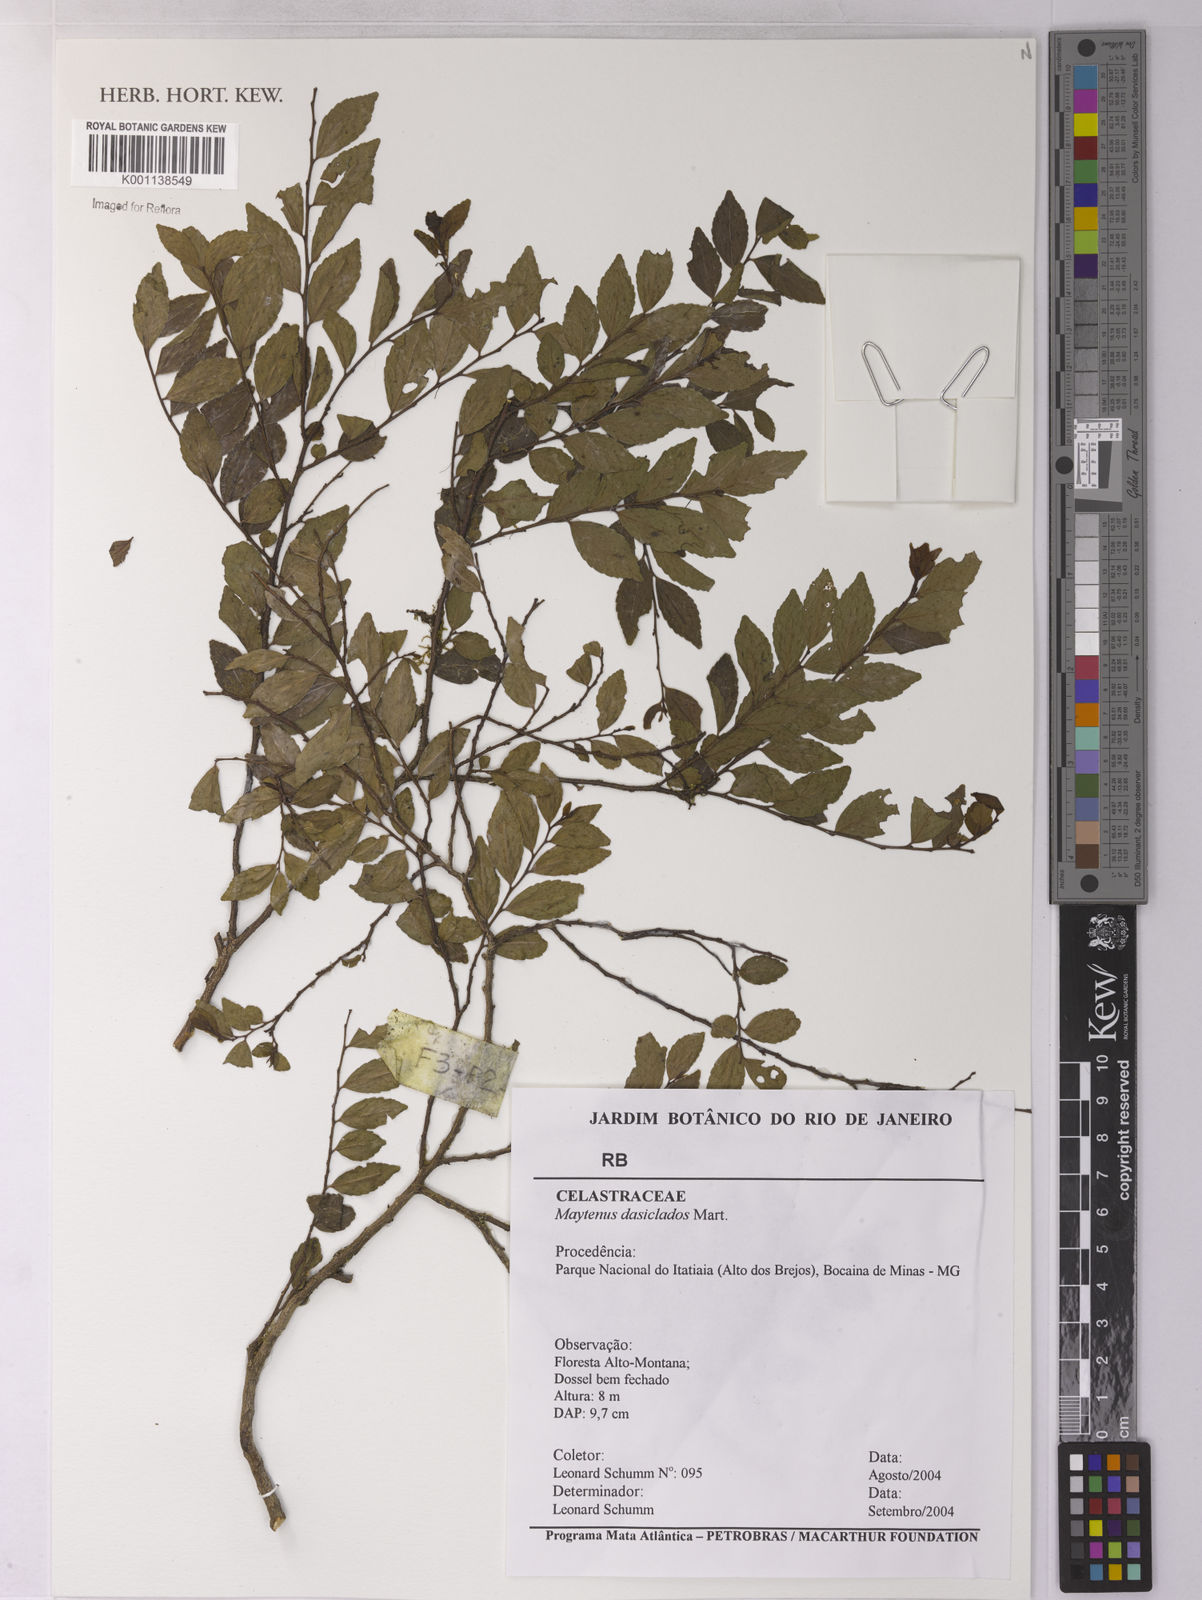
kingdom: Plantae
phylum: Tracheophyta
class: Magnoliopsida
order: Celastrales
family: Celastraceae
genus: Monteverdia
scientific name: Monteverdia dasyclados
